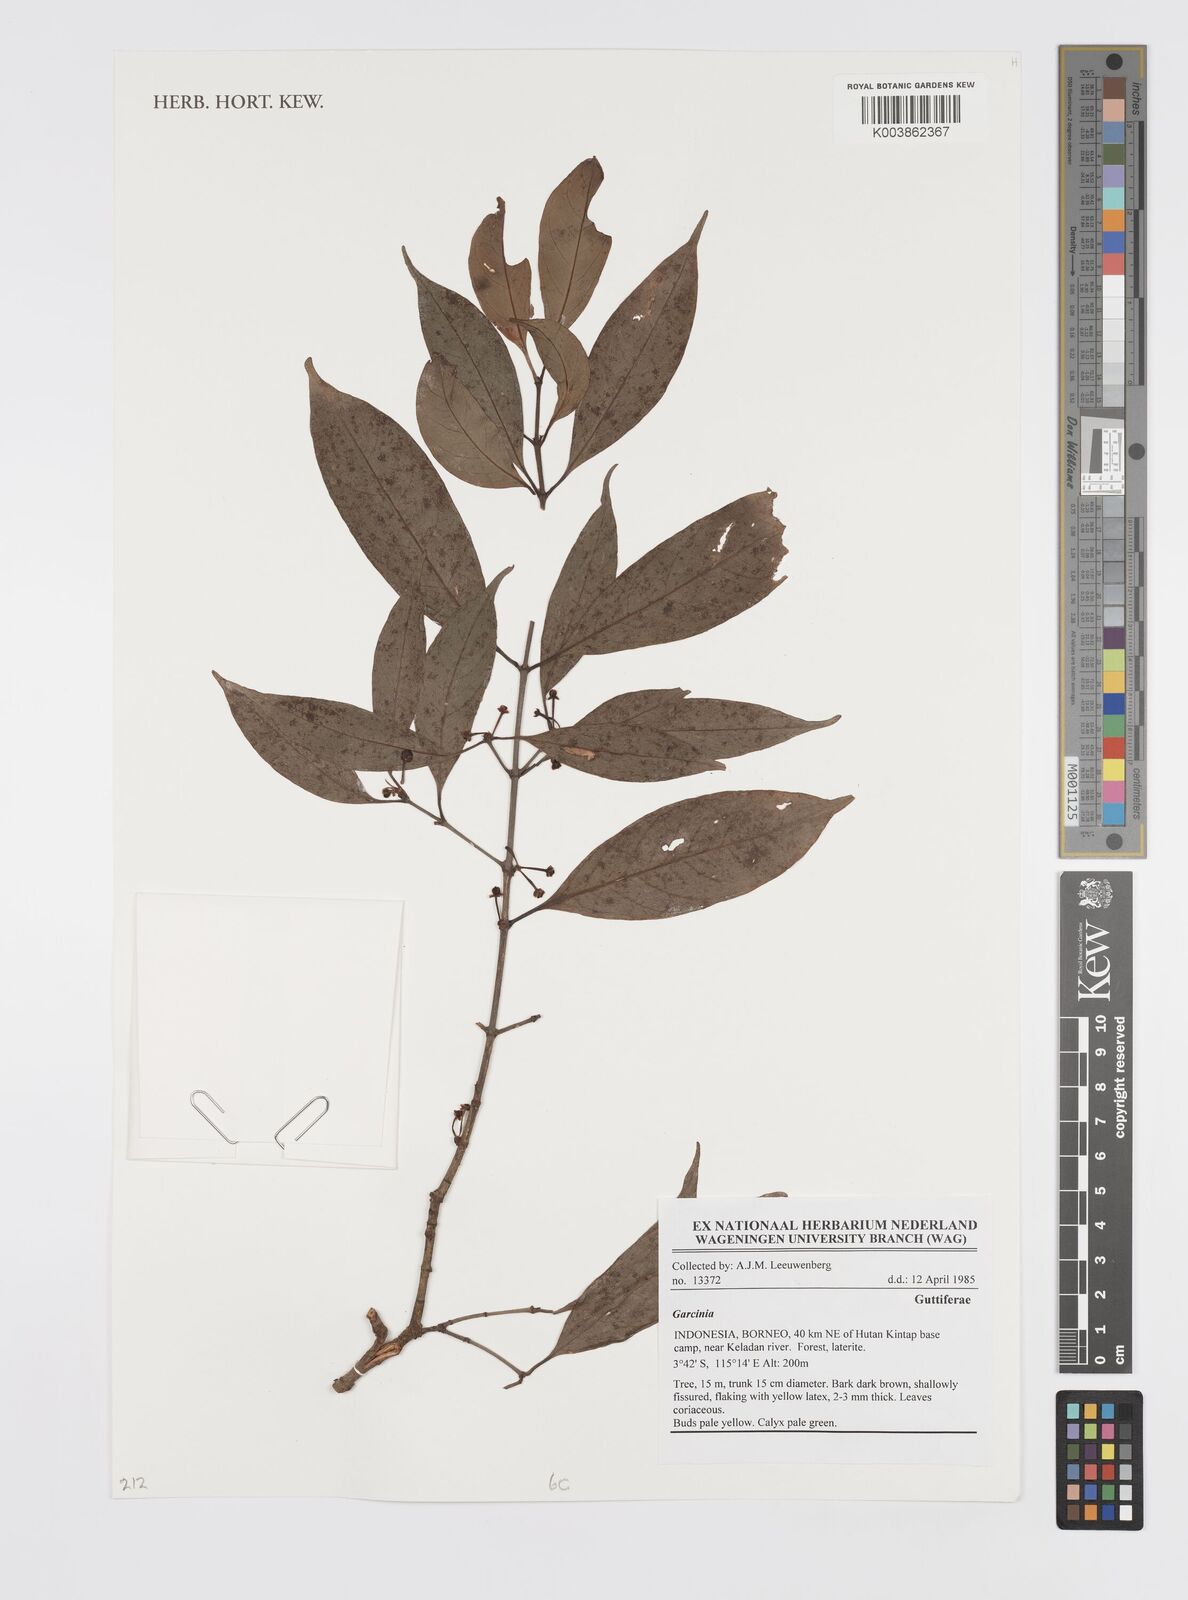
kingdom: Plantae
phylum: Tracheophyta
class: Magnoliopsida
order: Malpighiales
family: Clusiaceae
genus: Garcinia
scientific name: Garcinia
